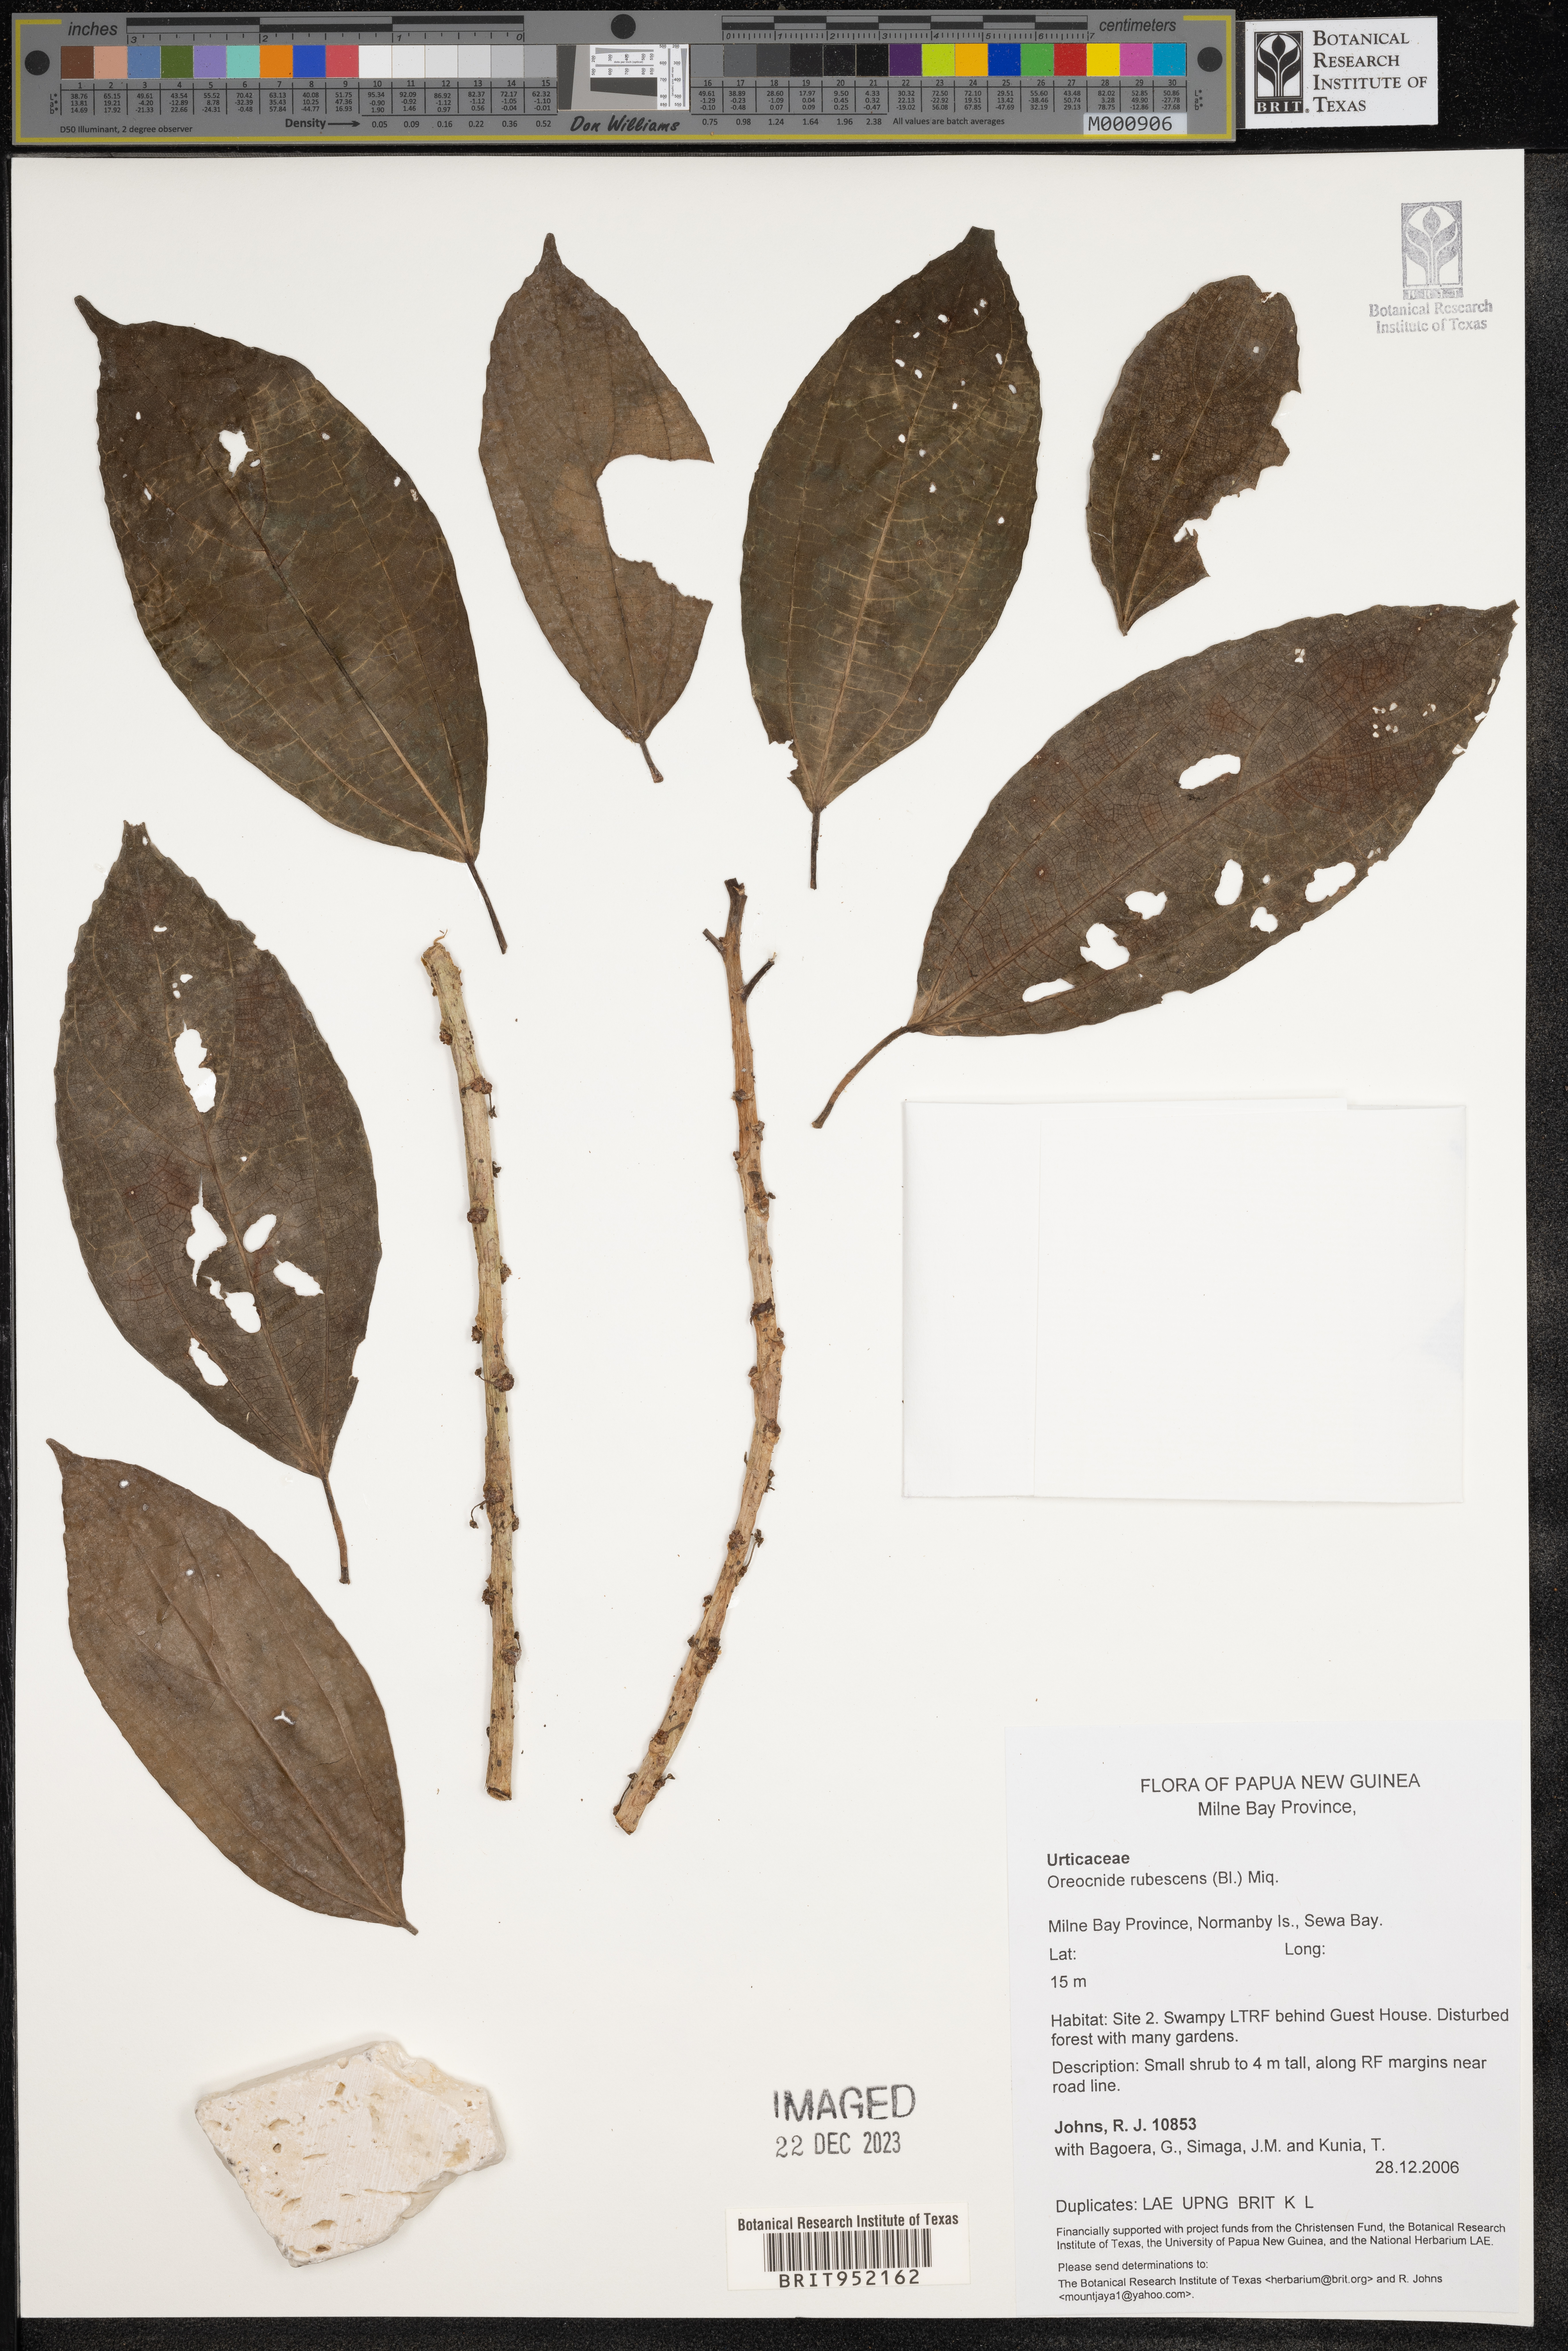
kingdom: Plantae
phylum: Tracheophyta
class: Magnoliopsida
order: Rosales
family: Urticaceae
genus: Oreocnide
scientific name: Oreocnide
